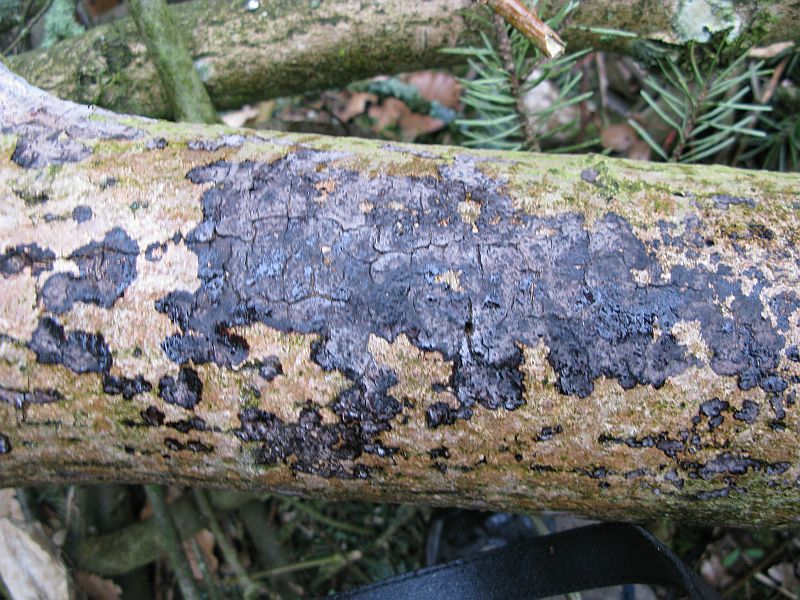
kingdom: Fungi
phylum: Basidiomycota
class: Agaricomycetes
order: Russulales
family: Peniophoraceae
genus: Peniophora
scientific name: Peniophora limitata
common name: mørkrandet voksskind
